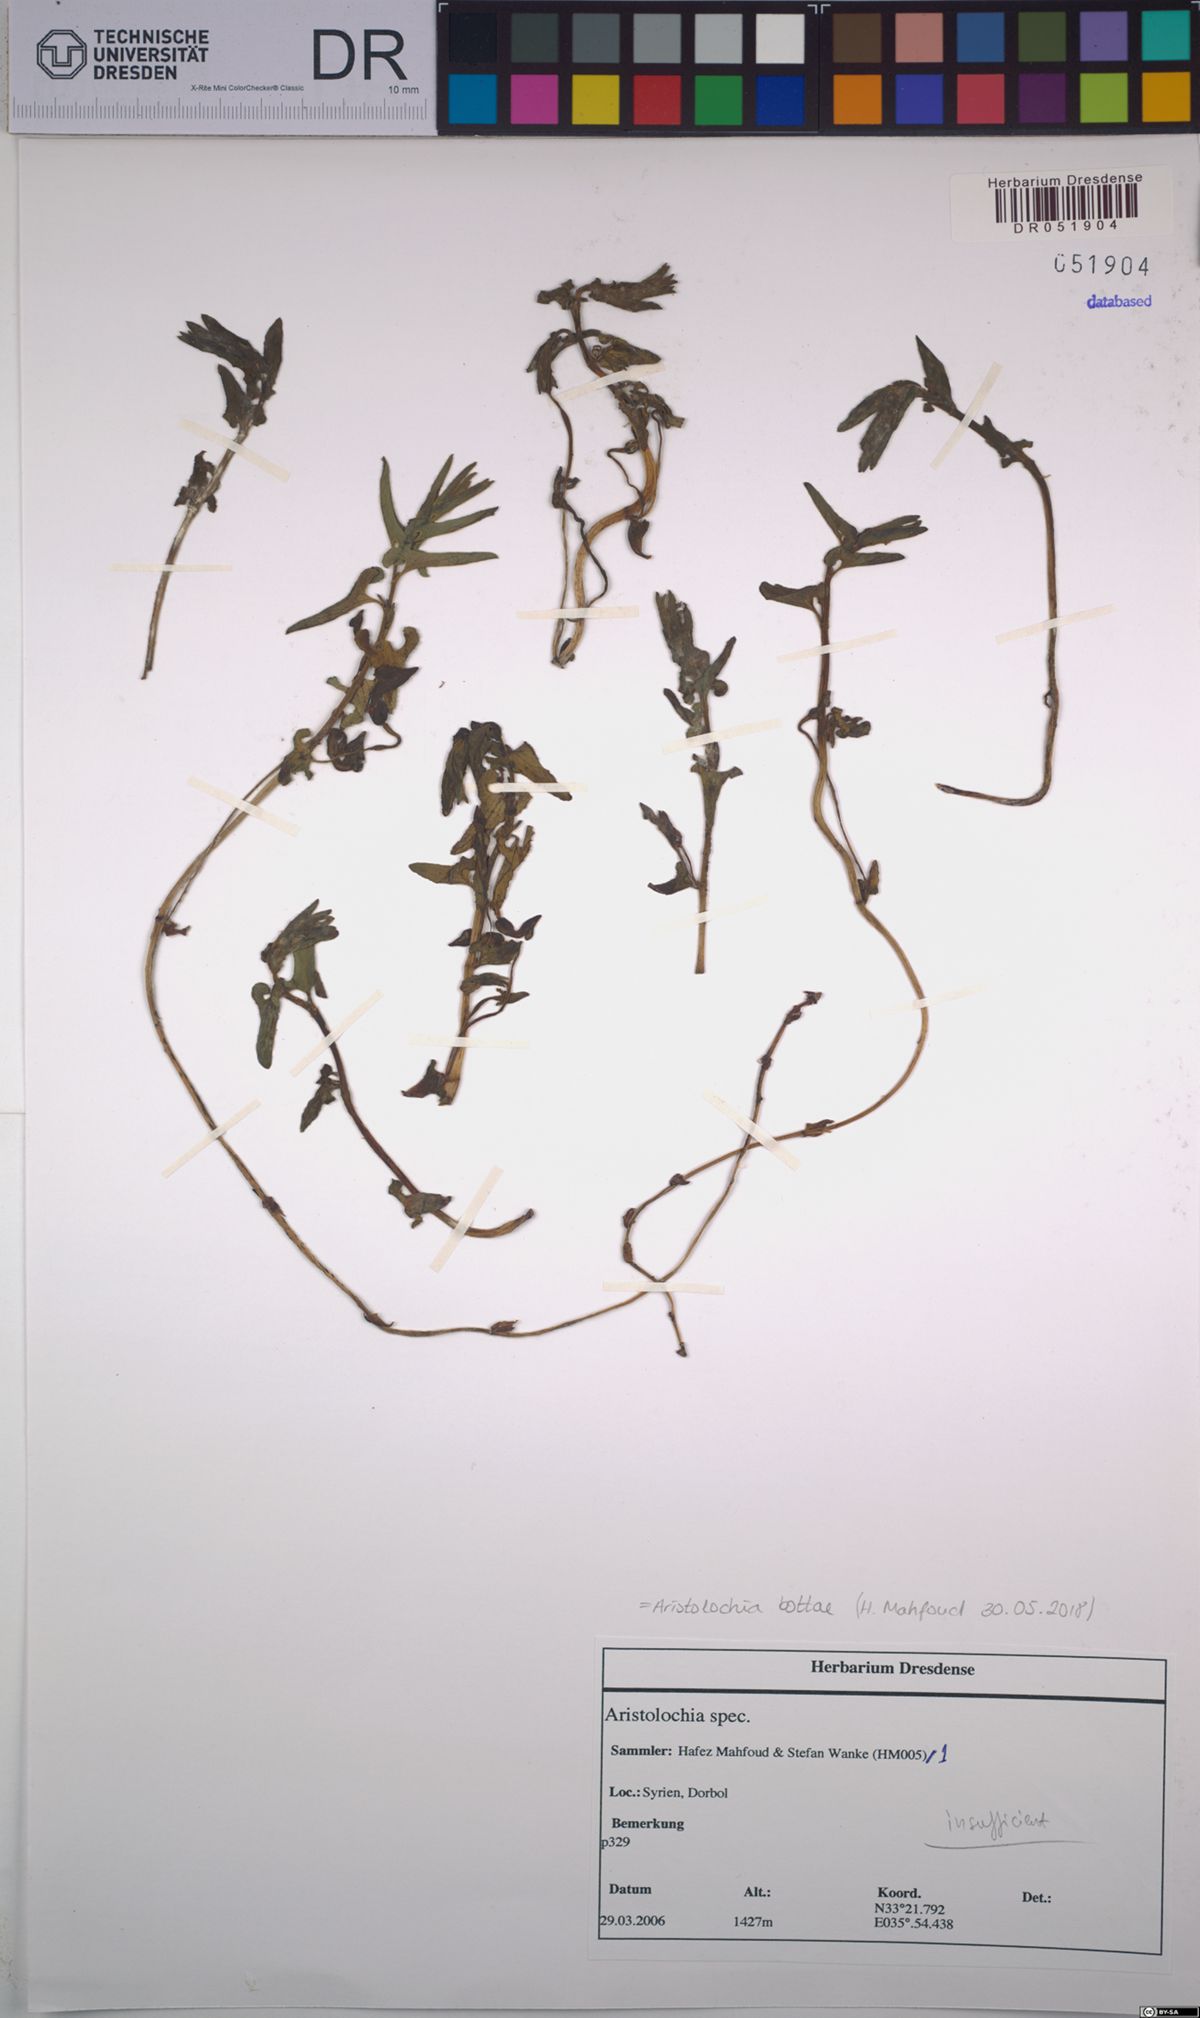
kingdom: Plantae
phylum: Tracheophyta
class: Magnoliopsida
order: Piperales
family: Aristolochiaceae
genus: Aristolochia
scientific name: Aristolochia bottae
